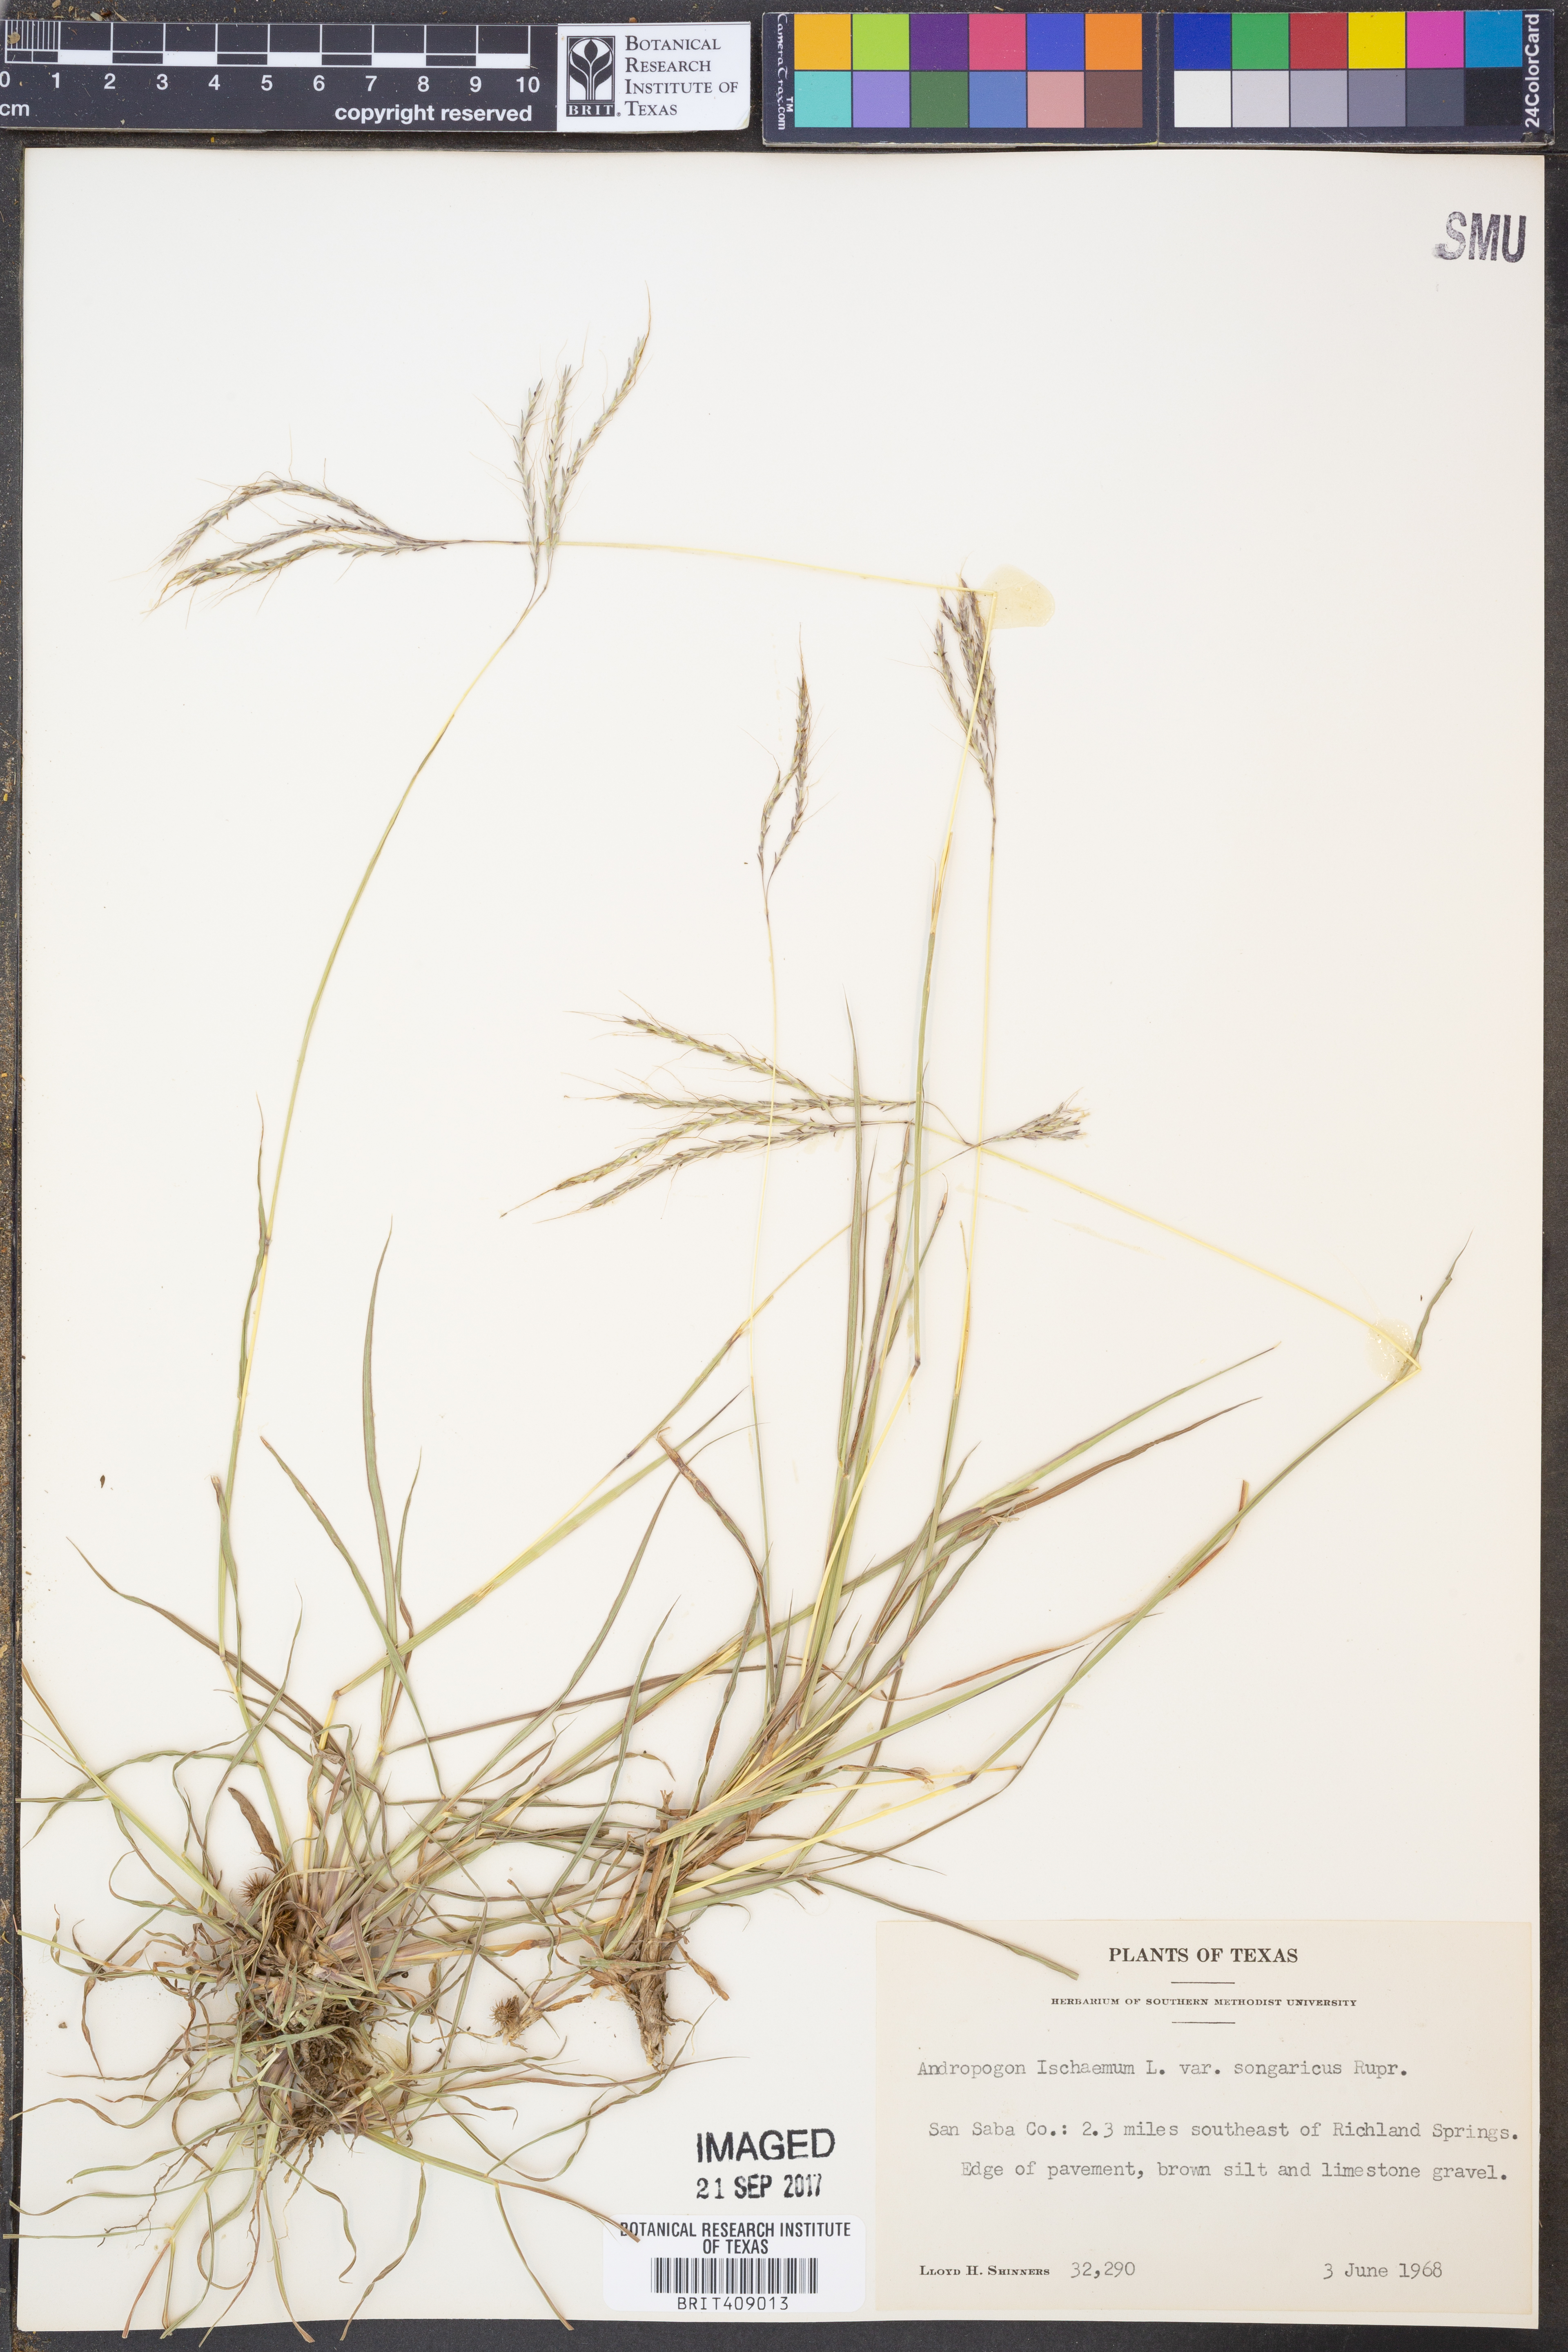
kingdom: Plantae
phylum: Tracheophyta
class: Liliopsida
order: Poales
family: Poaceae
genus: Bothriochloa
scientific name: Bothriochloa ischaemum
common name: Yellow bluestem
